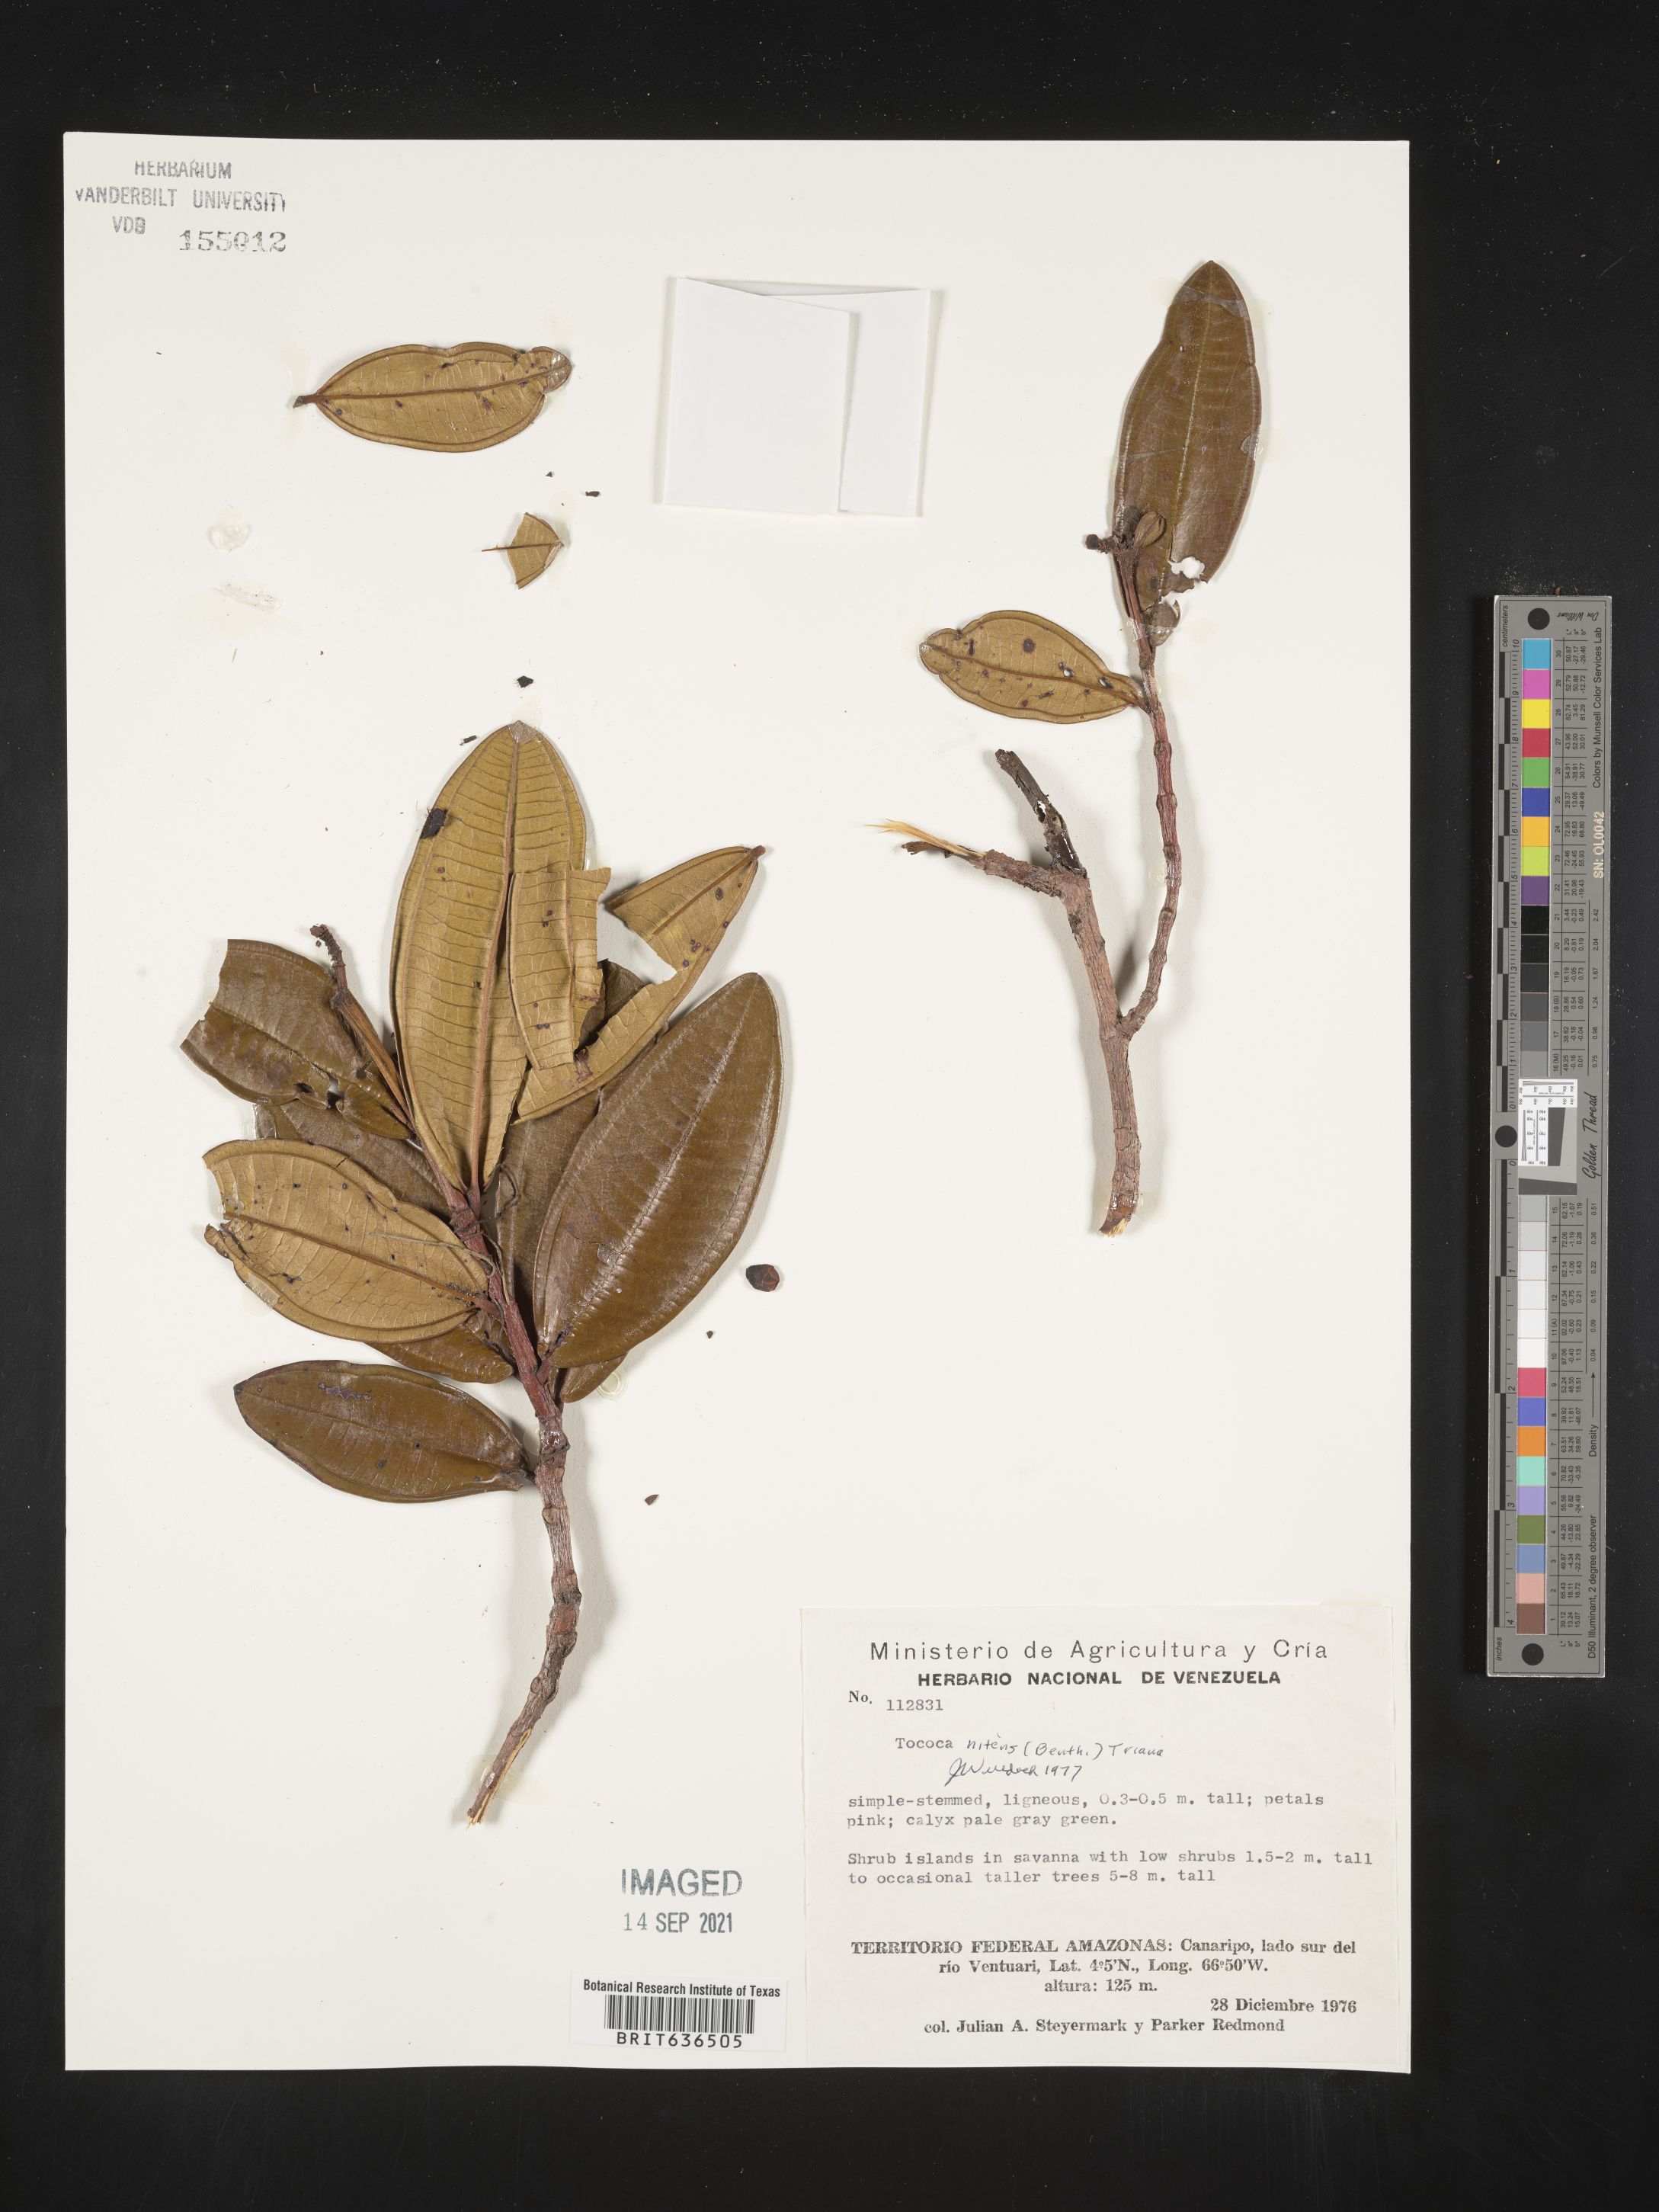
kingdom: Plantae
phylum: Tracheophyta
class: Magnoliopsida
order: Myrtales
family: Melastomataceae
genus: Tibouchina
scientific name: Tibouchina
